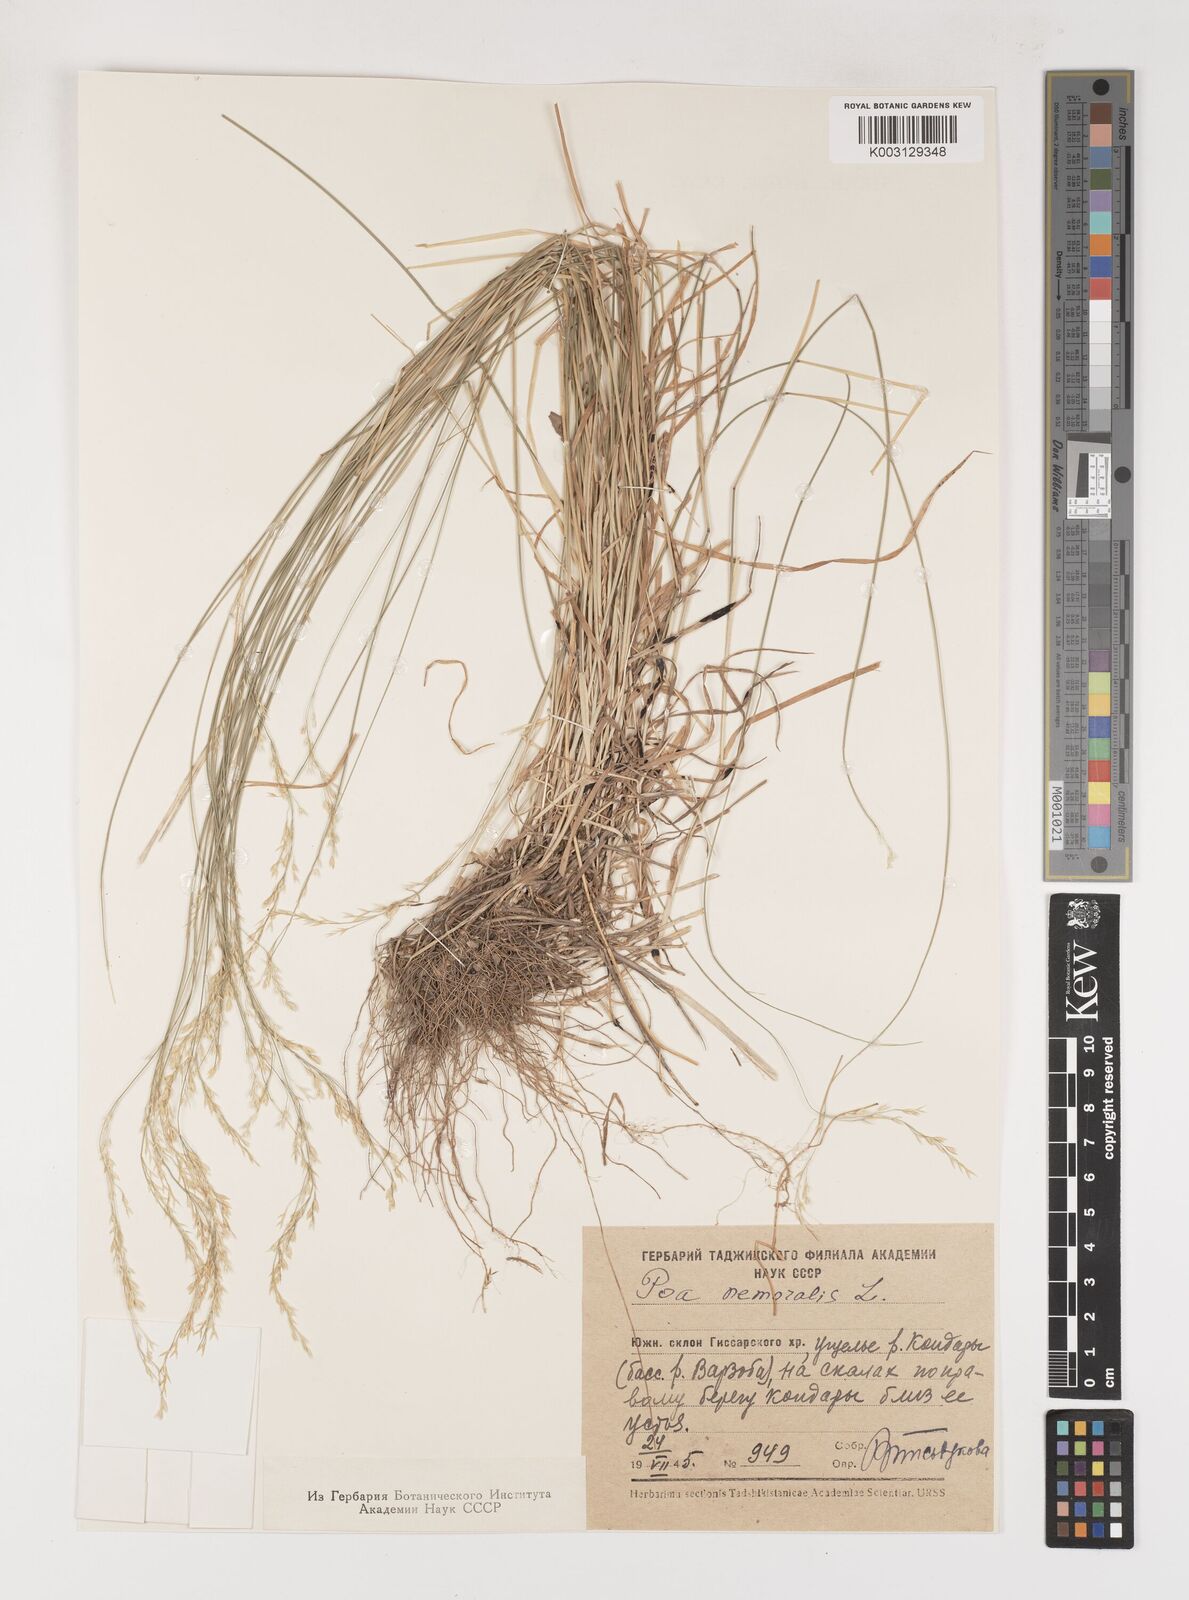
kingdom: Plantae
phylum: Tracheophyta
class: Liliopsida
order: Poales
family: Poaceae
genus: Poa
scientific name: Poa nemoralis
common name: Wood bluegrass
